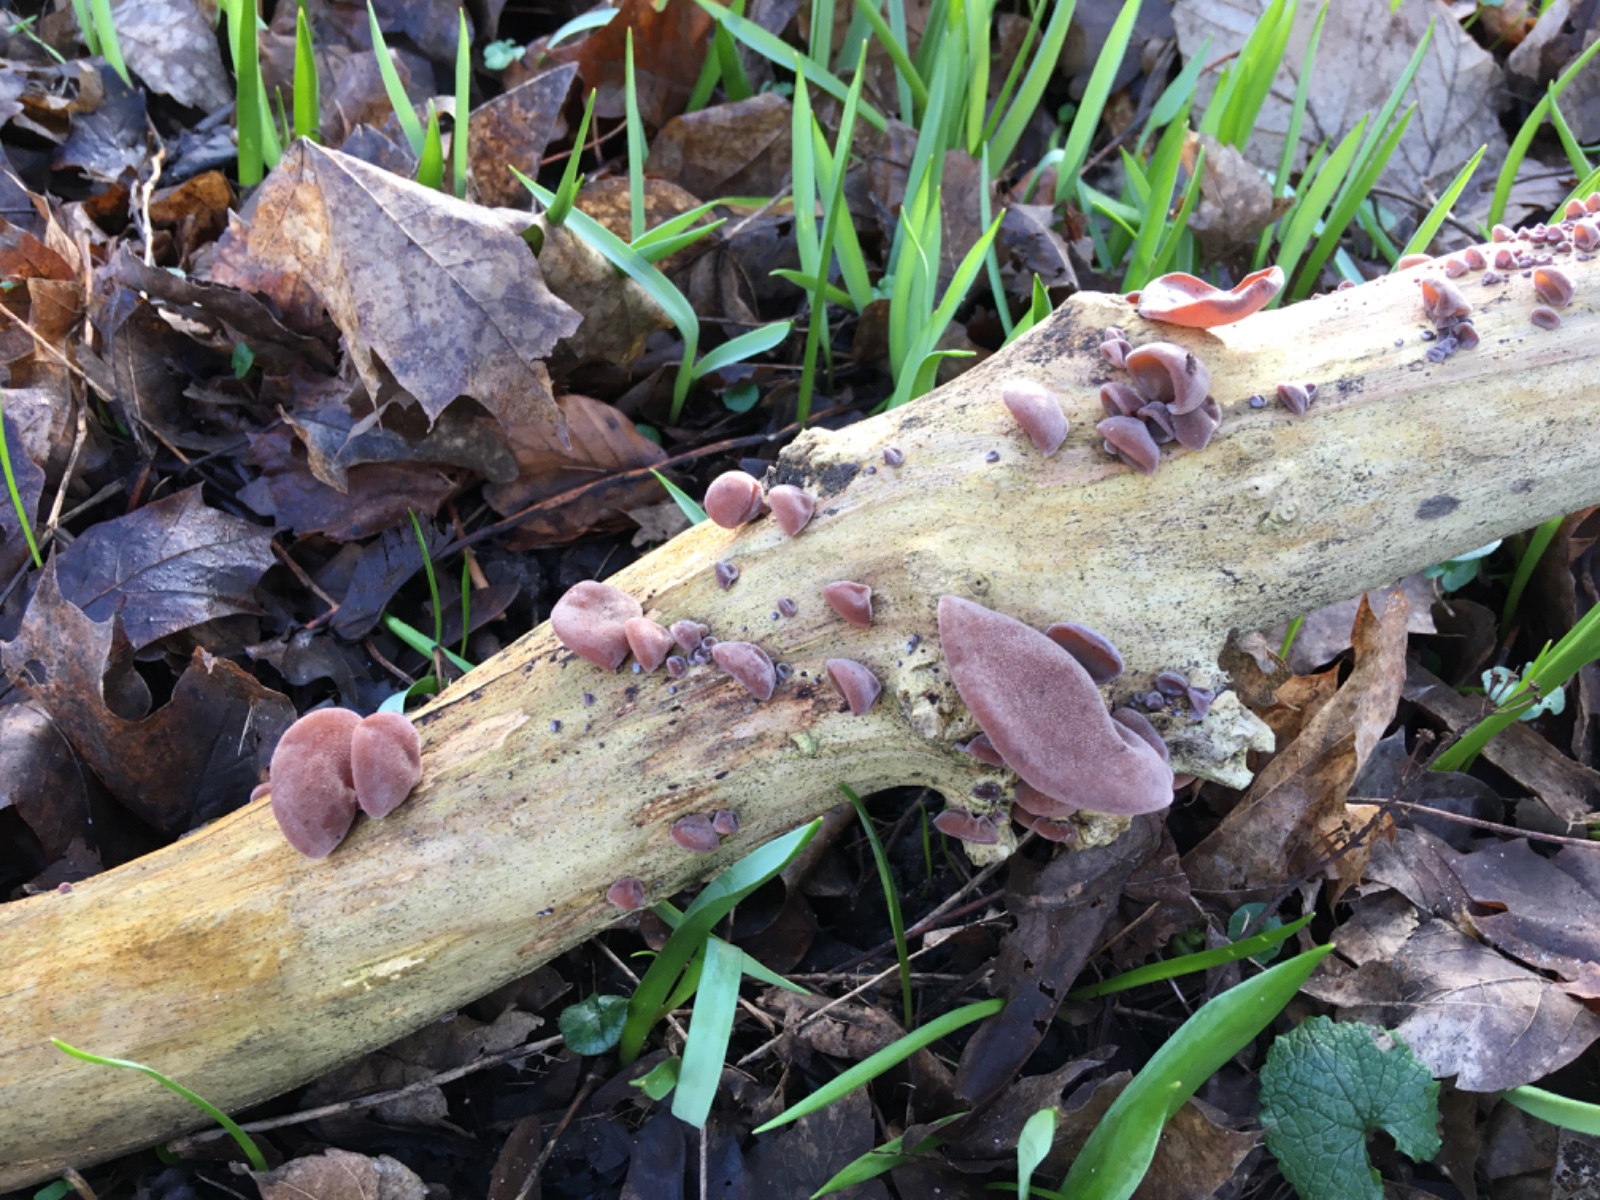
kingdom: Fungi
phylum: Basidiomycota
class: Agaricomycetes
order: Auriculariales
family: Auriculariaceae
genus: Auricularia
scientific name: Auricularia auricula-judae
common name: almindelig judasøre
